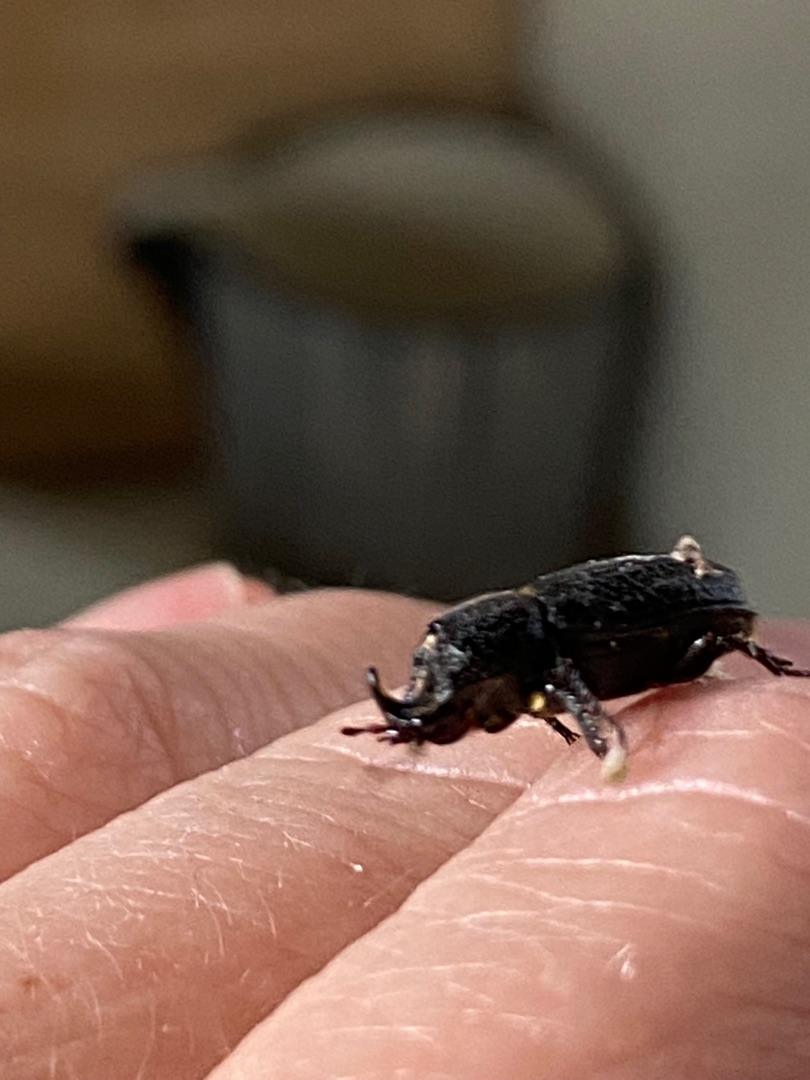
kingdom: Animalia
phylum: Arthropoda
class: Insecta
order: Coleoptera
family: Lucanidae
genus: Sinodendron
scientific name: Sinodendron cylindricum
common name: Valsehjort
